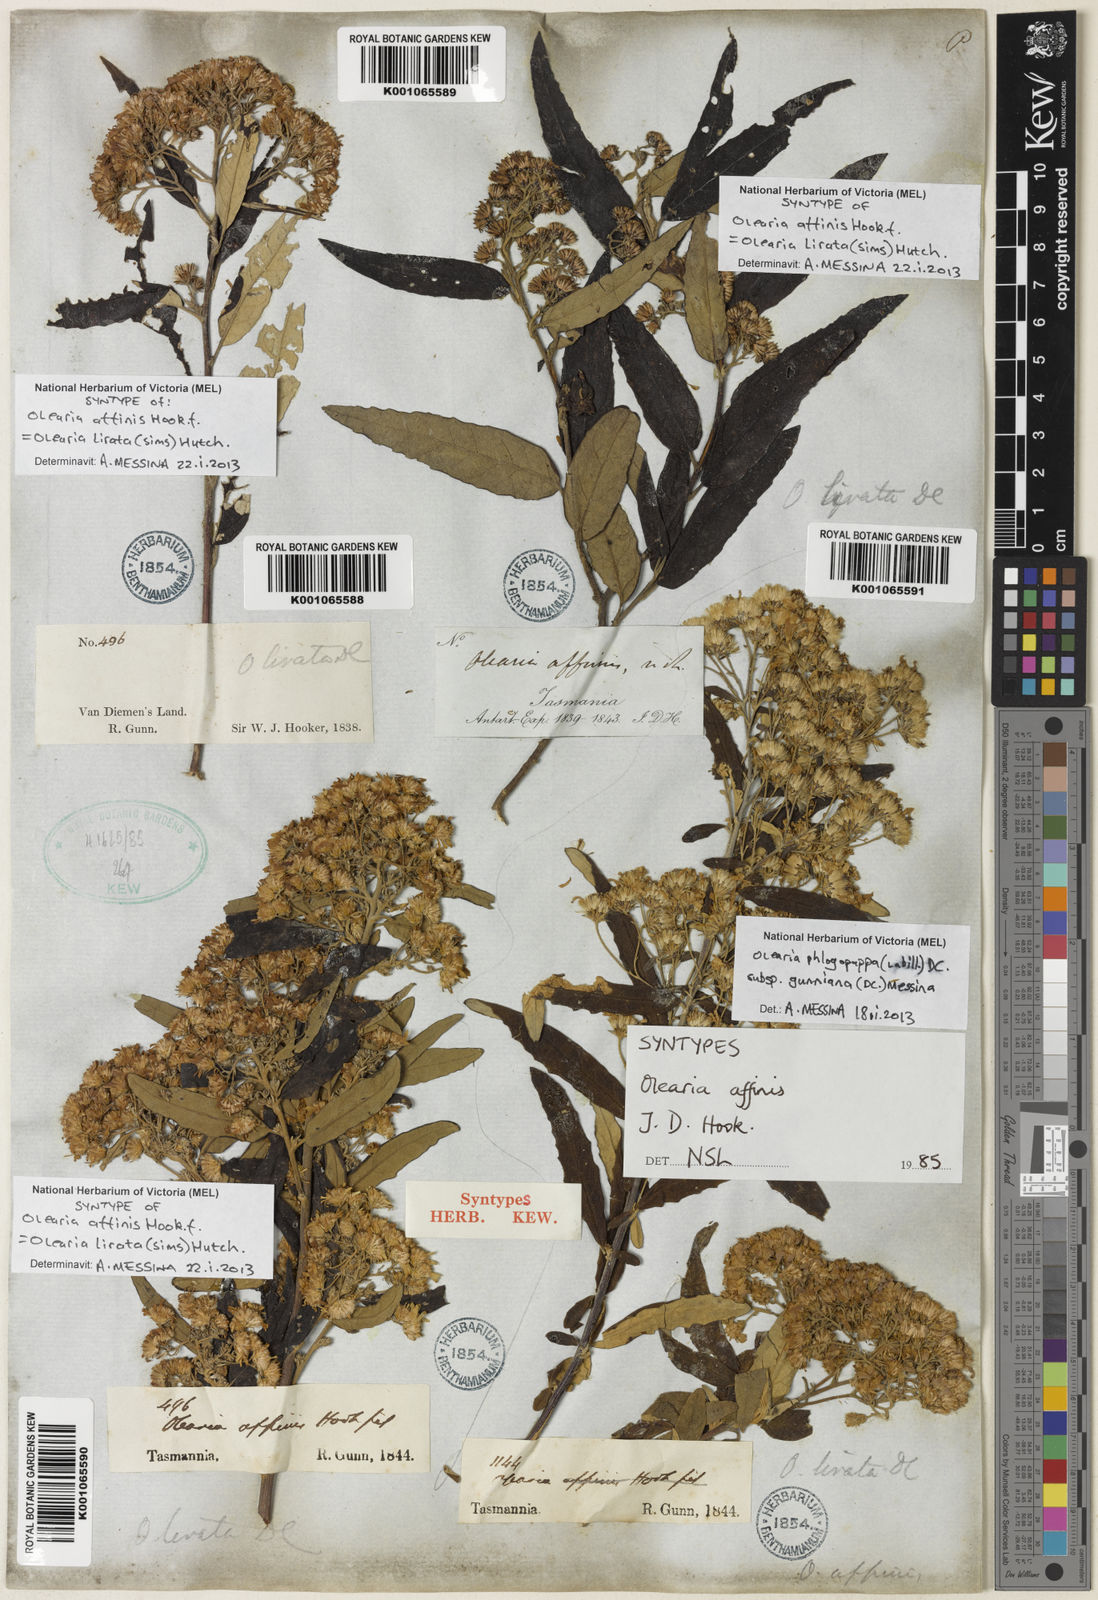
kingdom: Plantae
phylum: Tracheophyta
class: Magnoliopsida
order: Asterales
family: Asteraceae
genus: Olearia
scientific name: Olearia lirata
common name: Dusty daisybush
